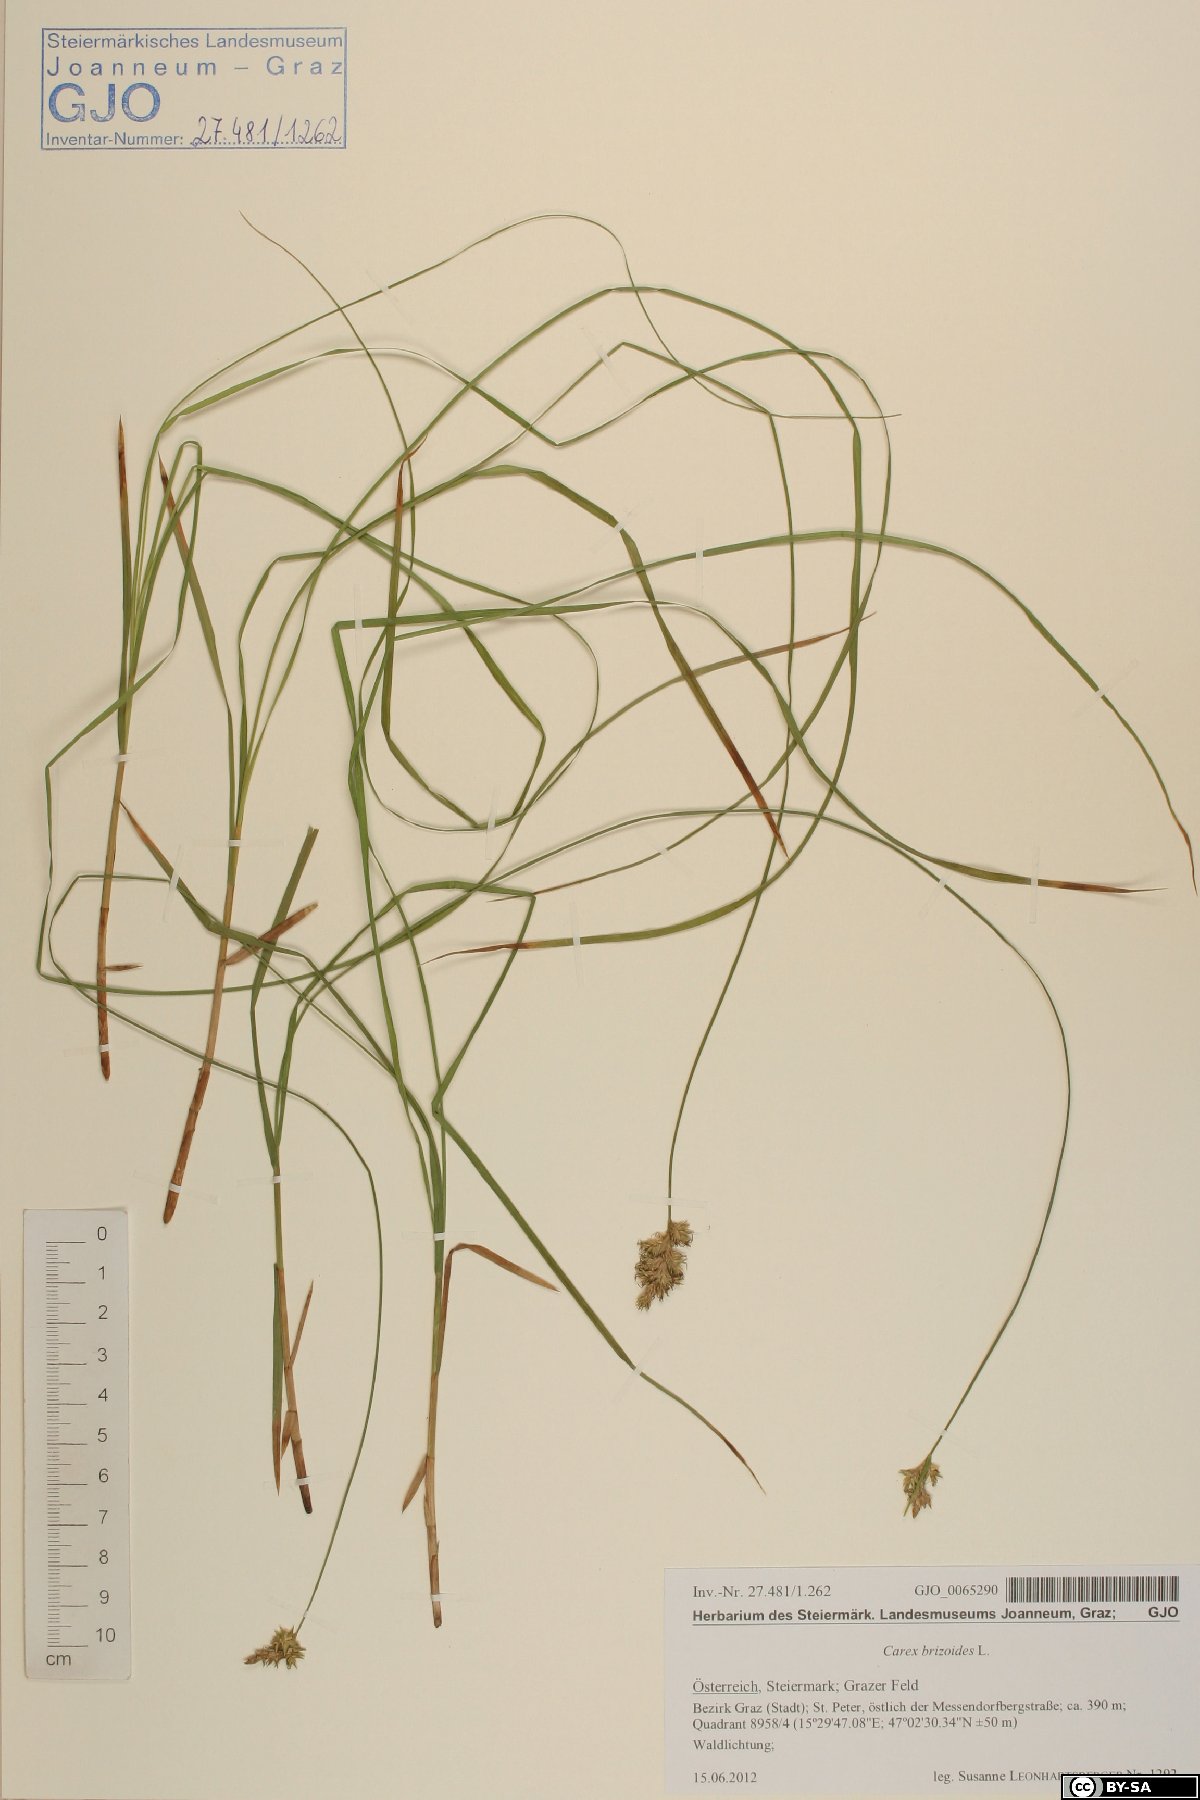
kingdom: Plantae
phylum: Tracheophyta
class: Liliopsida
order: Poales
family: Cyperaceae
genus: Carex
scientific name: Carex brizoides
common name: Quaking-grass sedge
